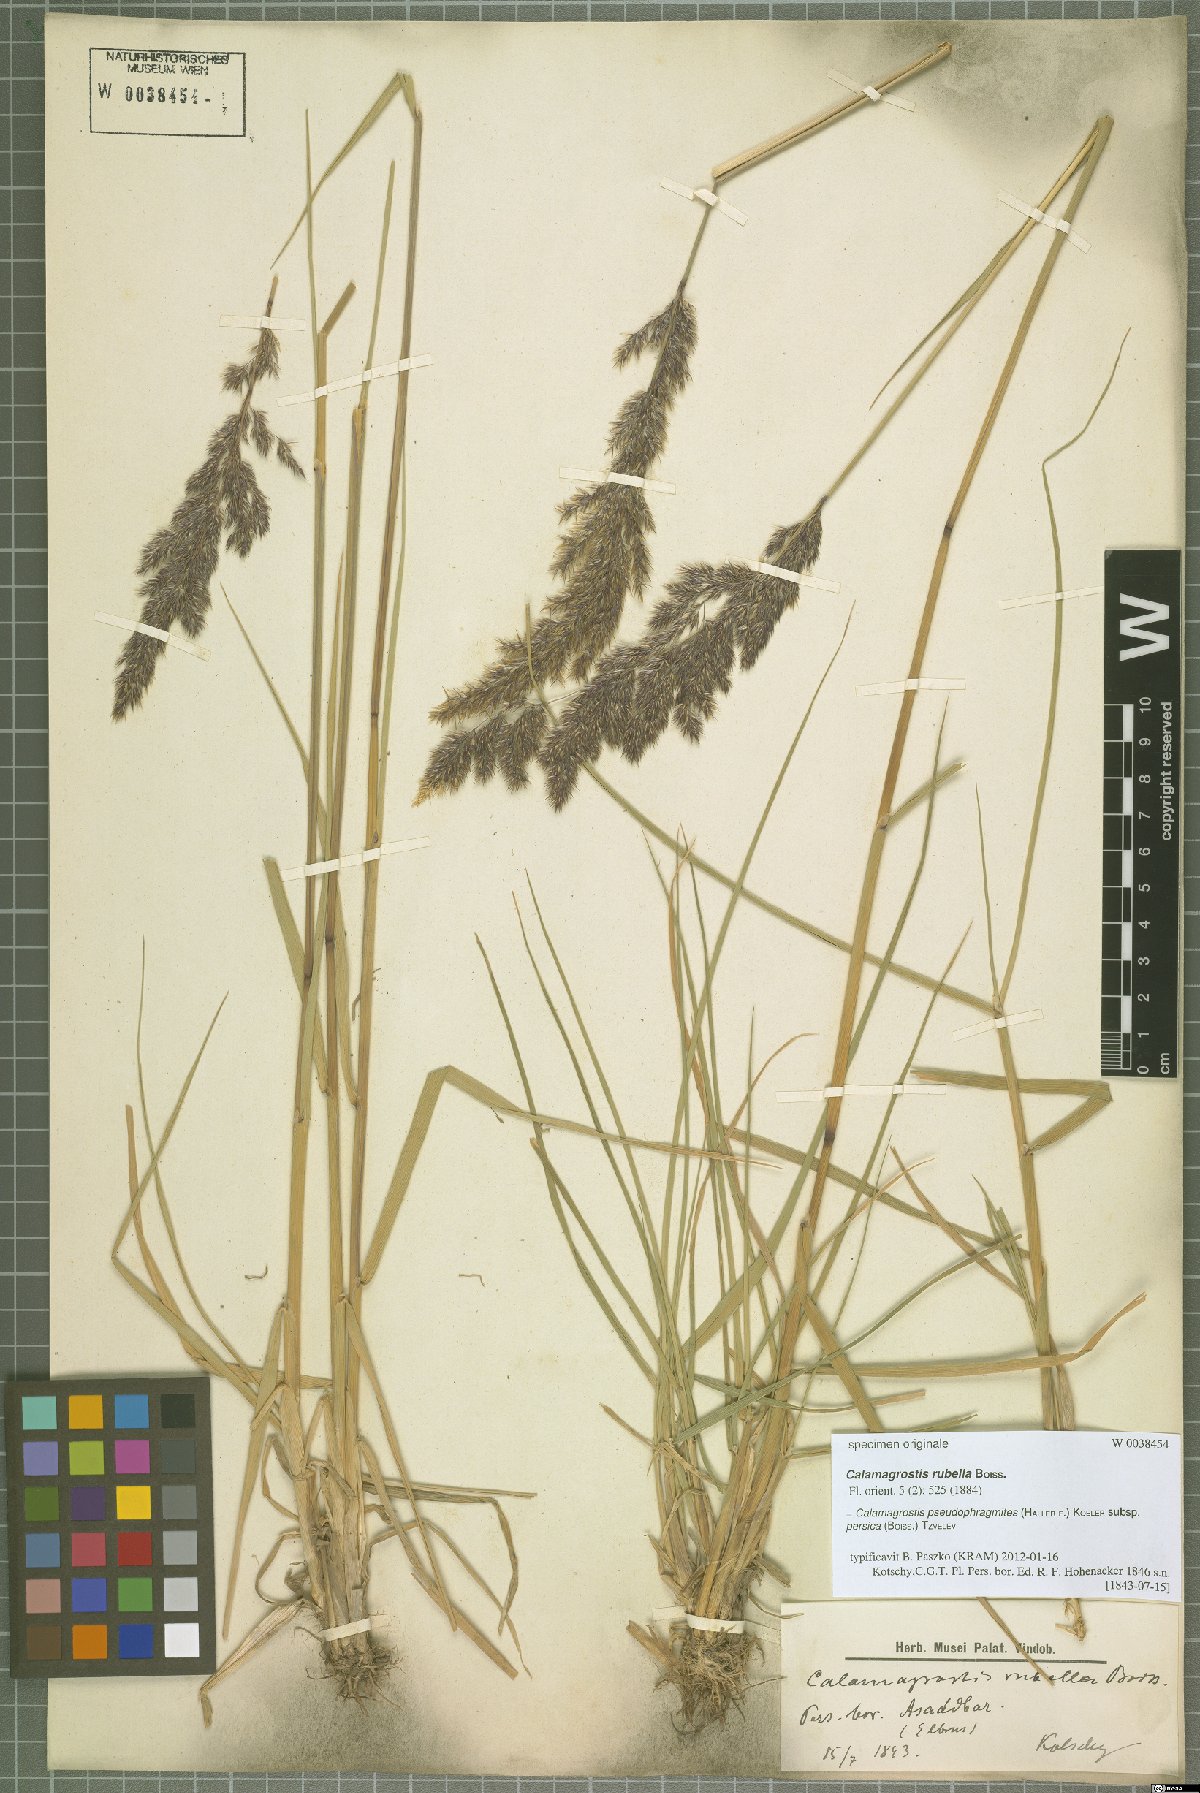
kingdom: Plantae
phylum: Tracheophyta
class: Liliopsida
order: Poales
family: Poaceae
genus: Calamagrostis
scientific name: Calamagrostis pseudophragmites
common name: Coastal small-reed
